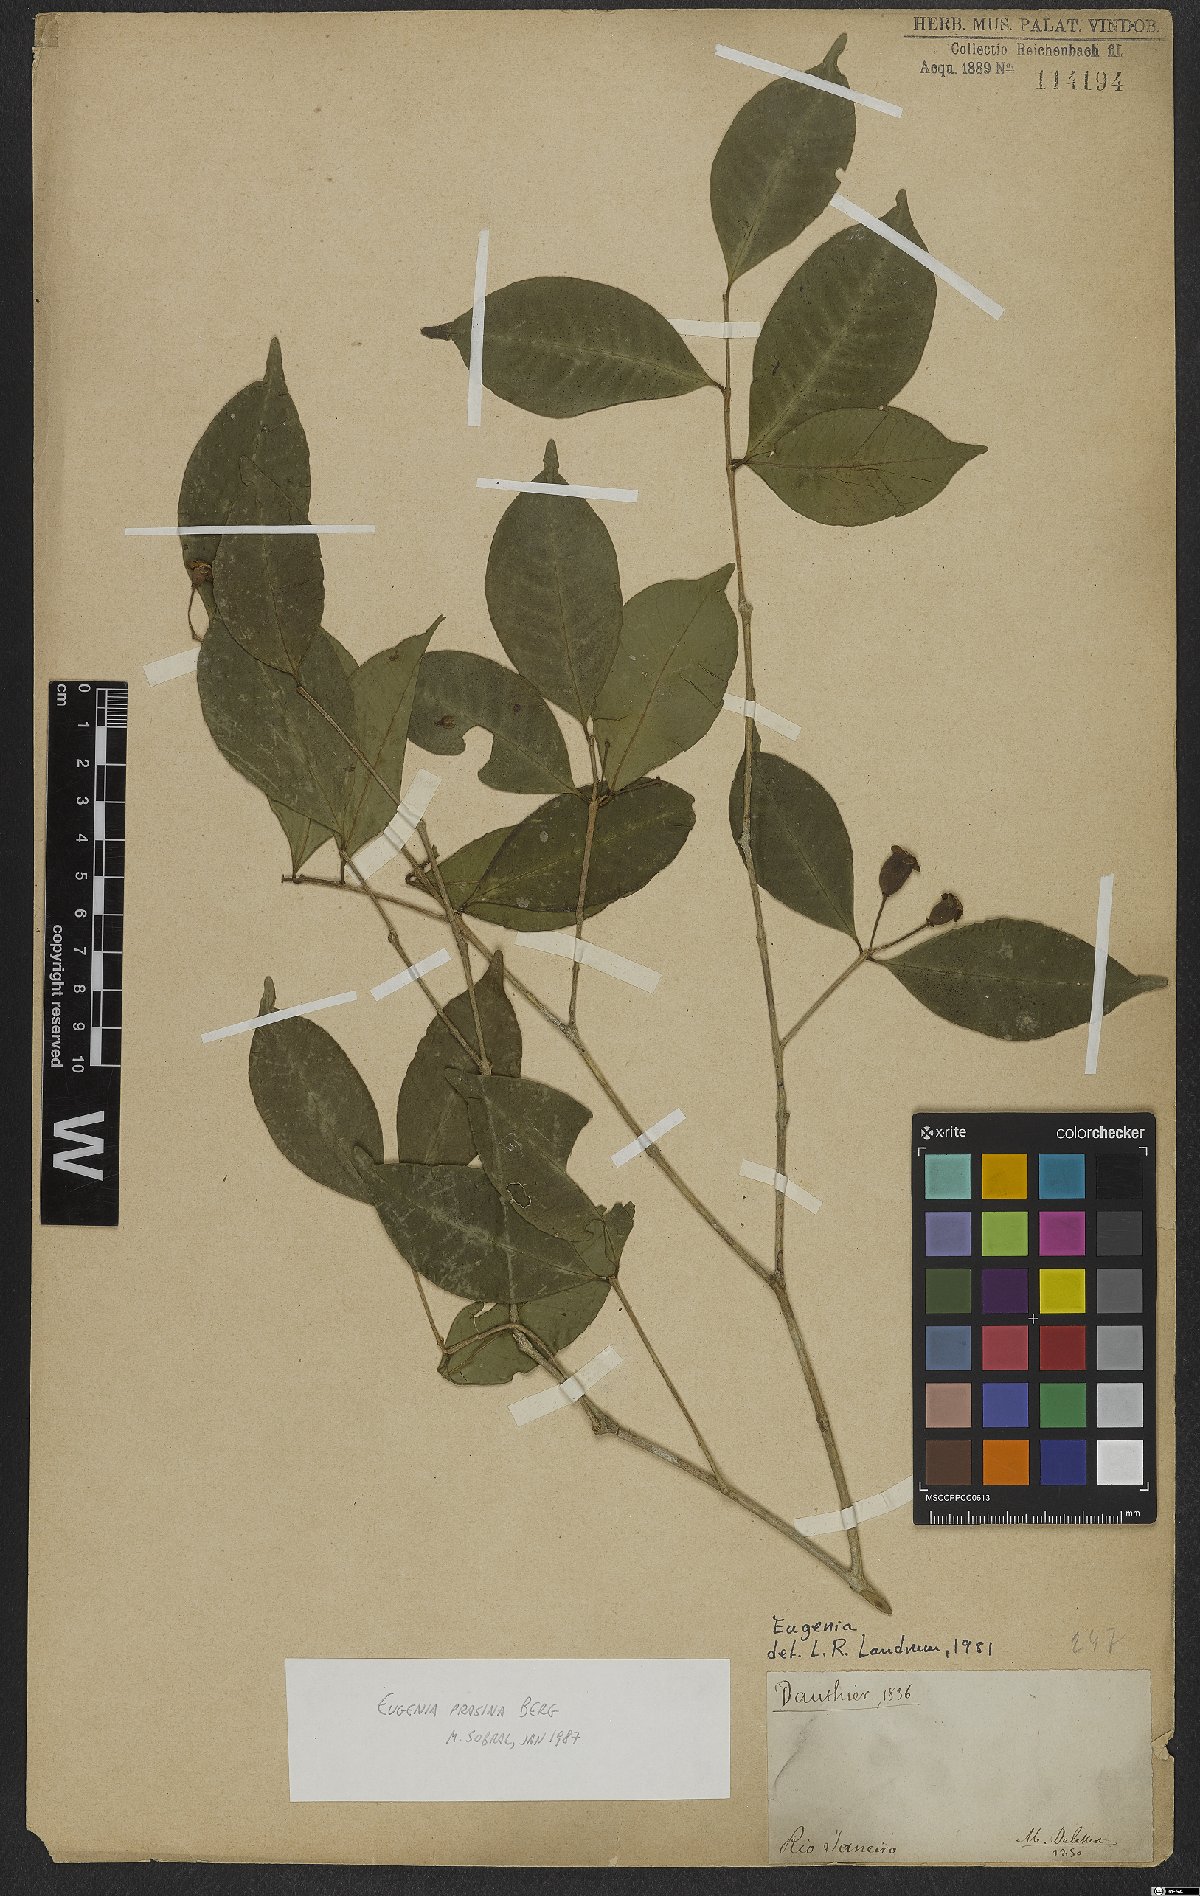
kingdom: Plantae
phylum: Tracheophyta
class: Magnoliopsida
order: Myrtales
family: Myrtaceae
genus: Eugenia
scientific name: Eugenia prasina
